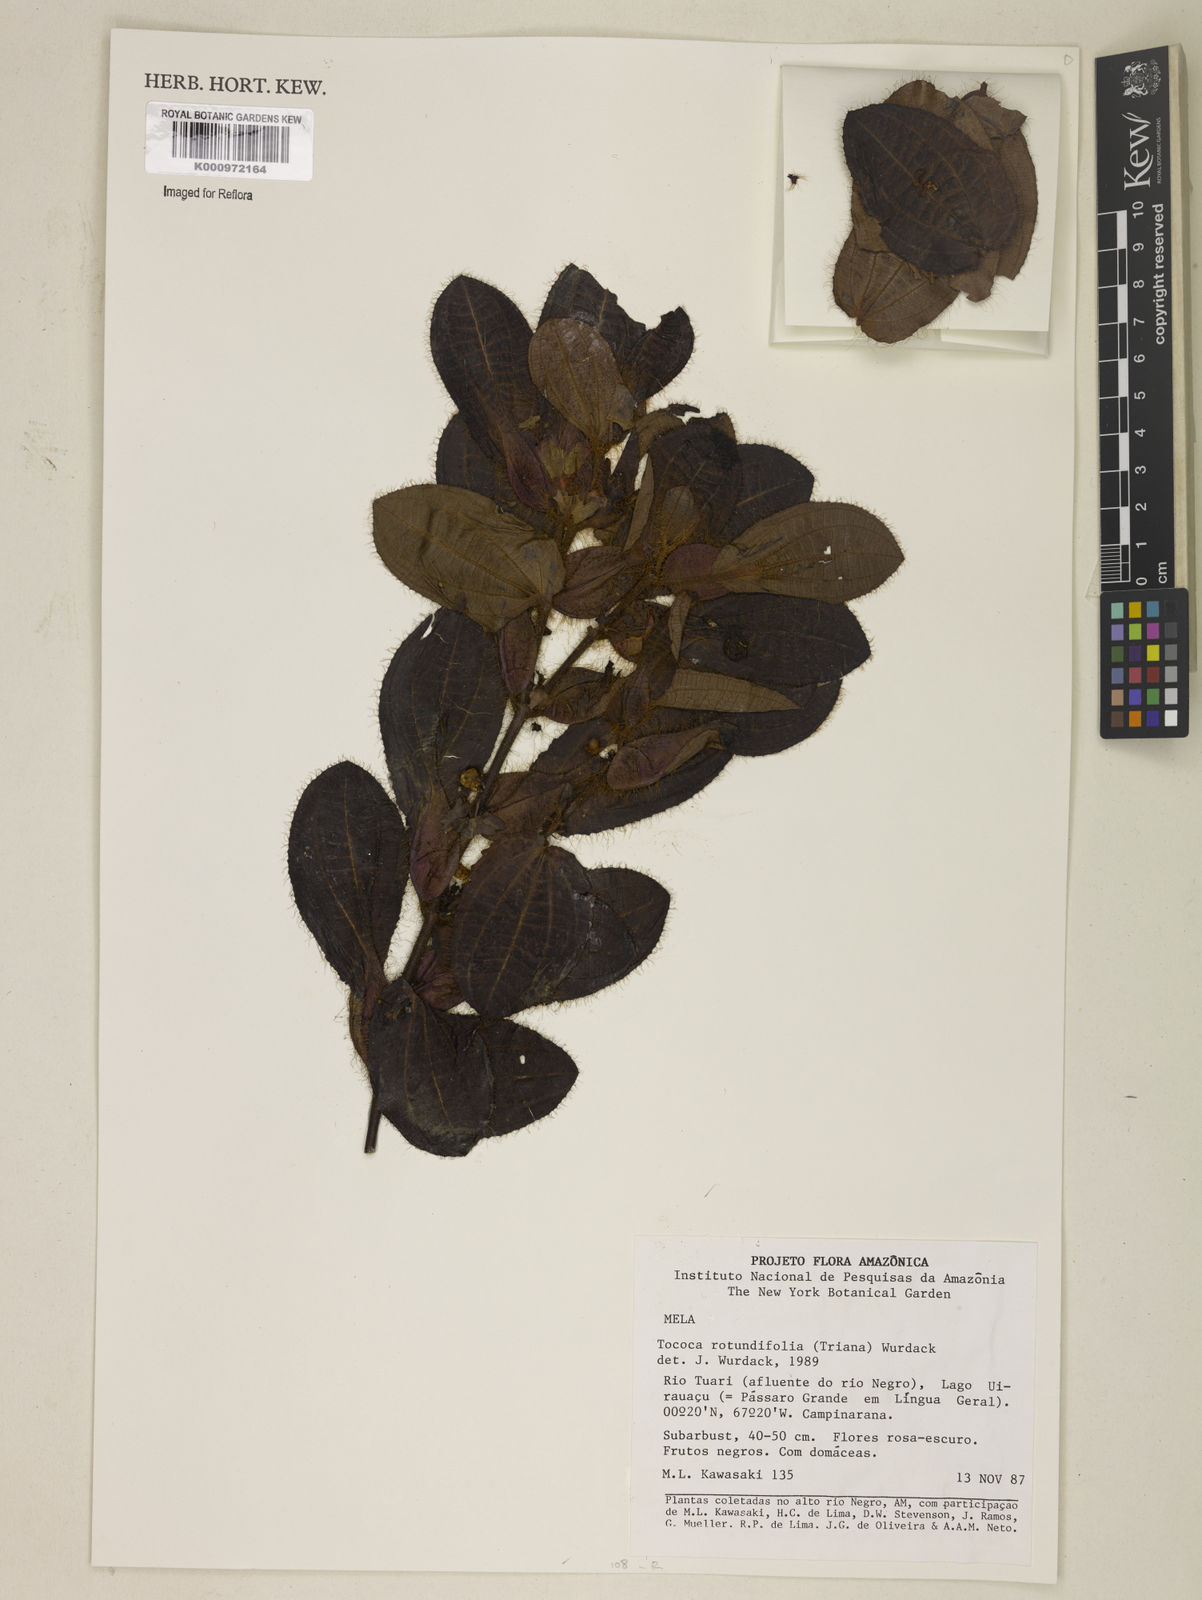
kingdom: Plantae
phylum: Tracheophyta
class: Magnoliopsida
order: Myrtales
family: Melastomataceae
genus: Miconia
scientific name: Miconia rubripetala
